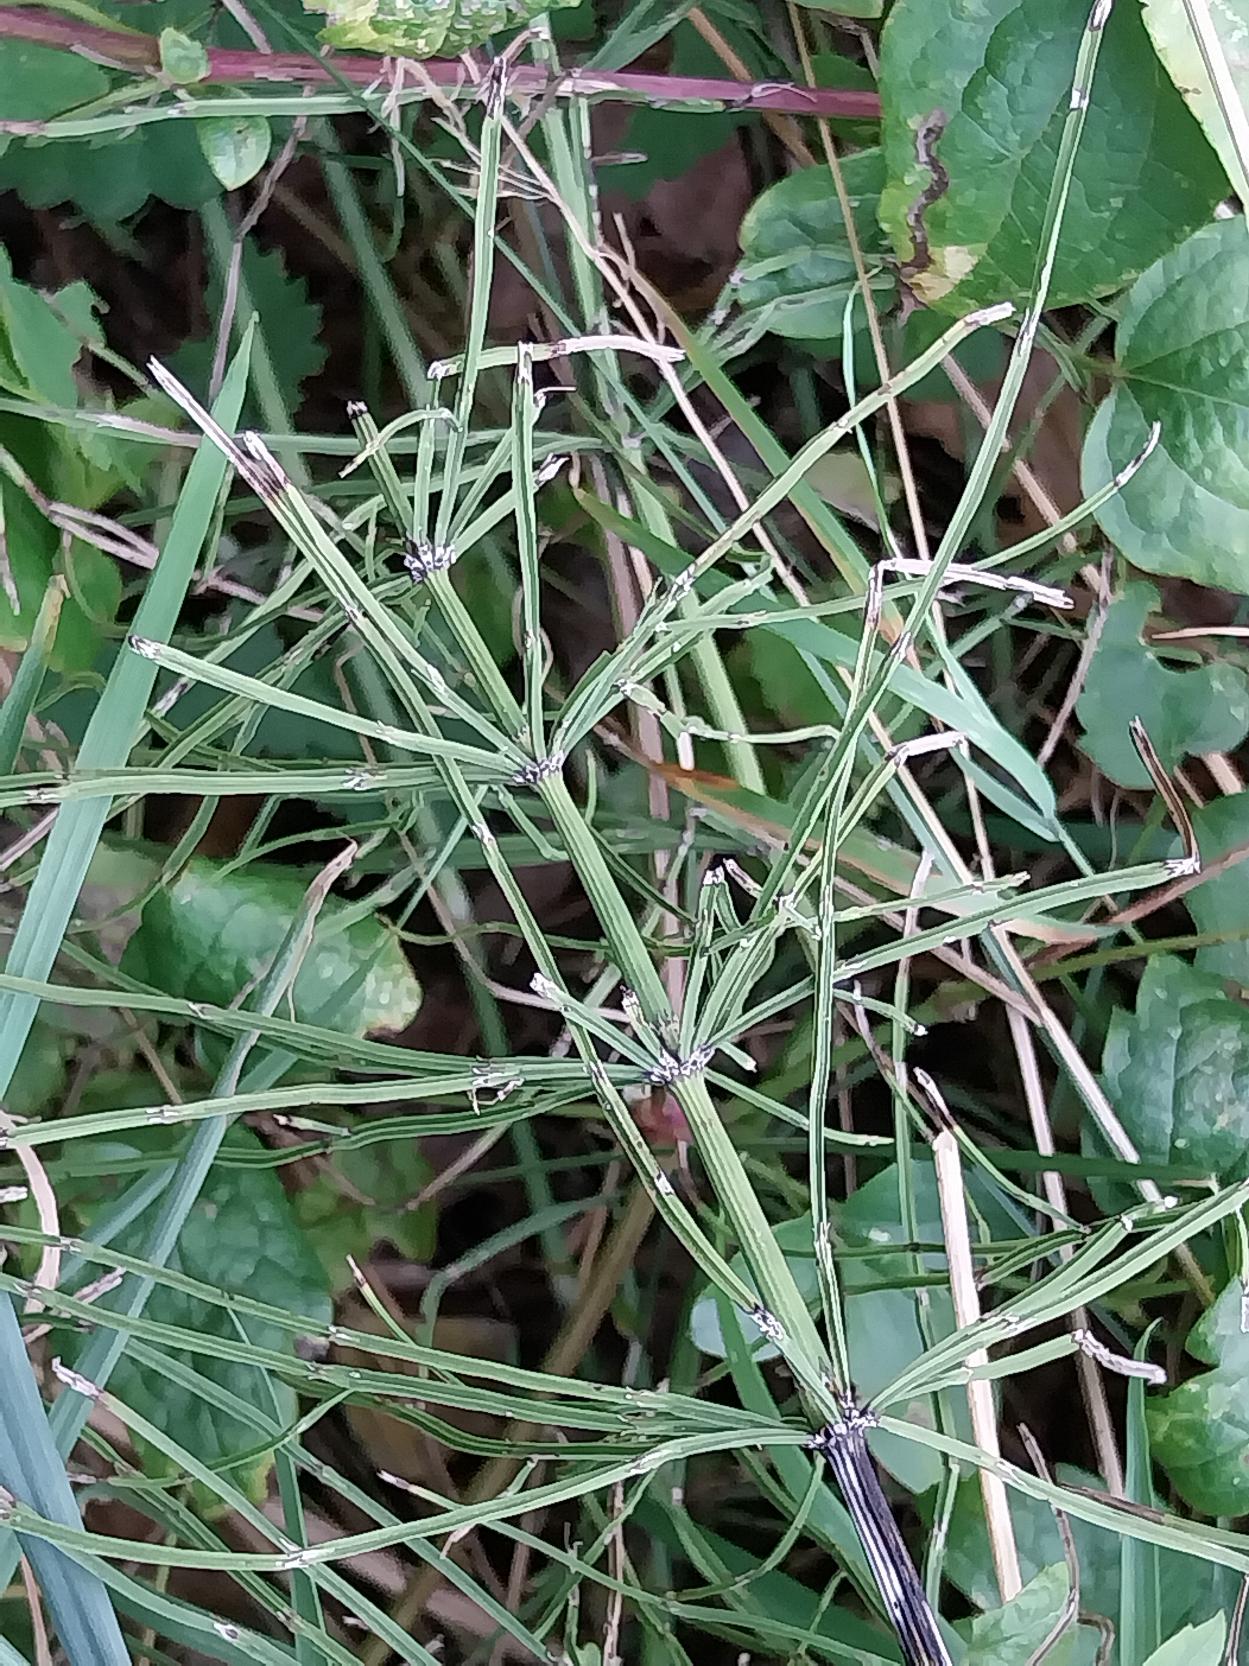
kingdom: Plantae
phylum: Tracheophyta
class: Polypodiopsida
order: Equisetales
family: Equisetaceae
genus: Equisetum
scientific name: Equisetum arvense
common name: Ager-padderok
